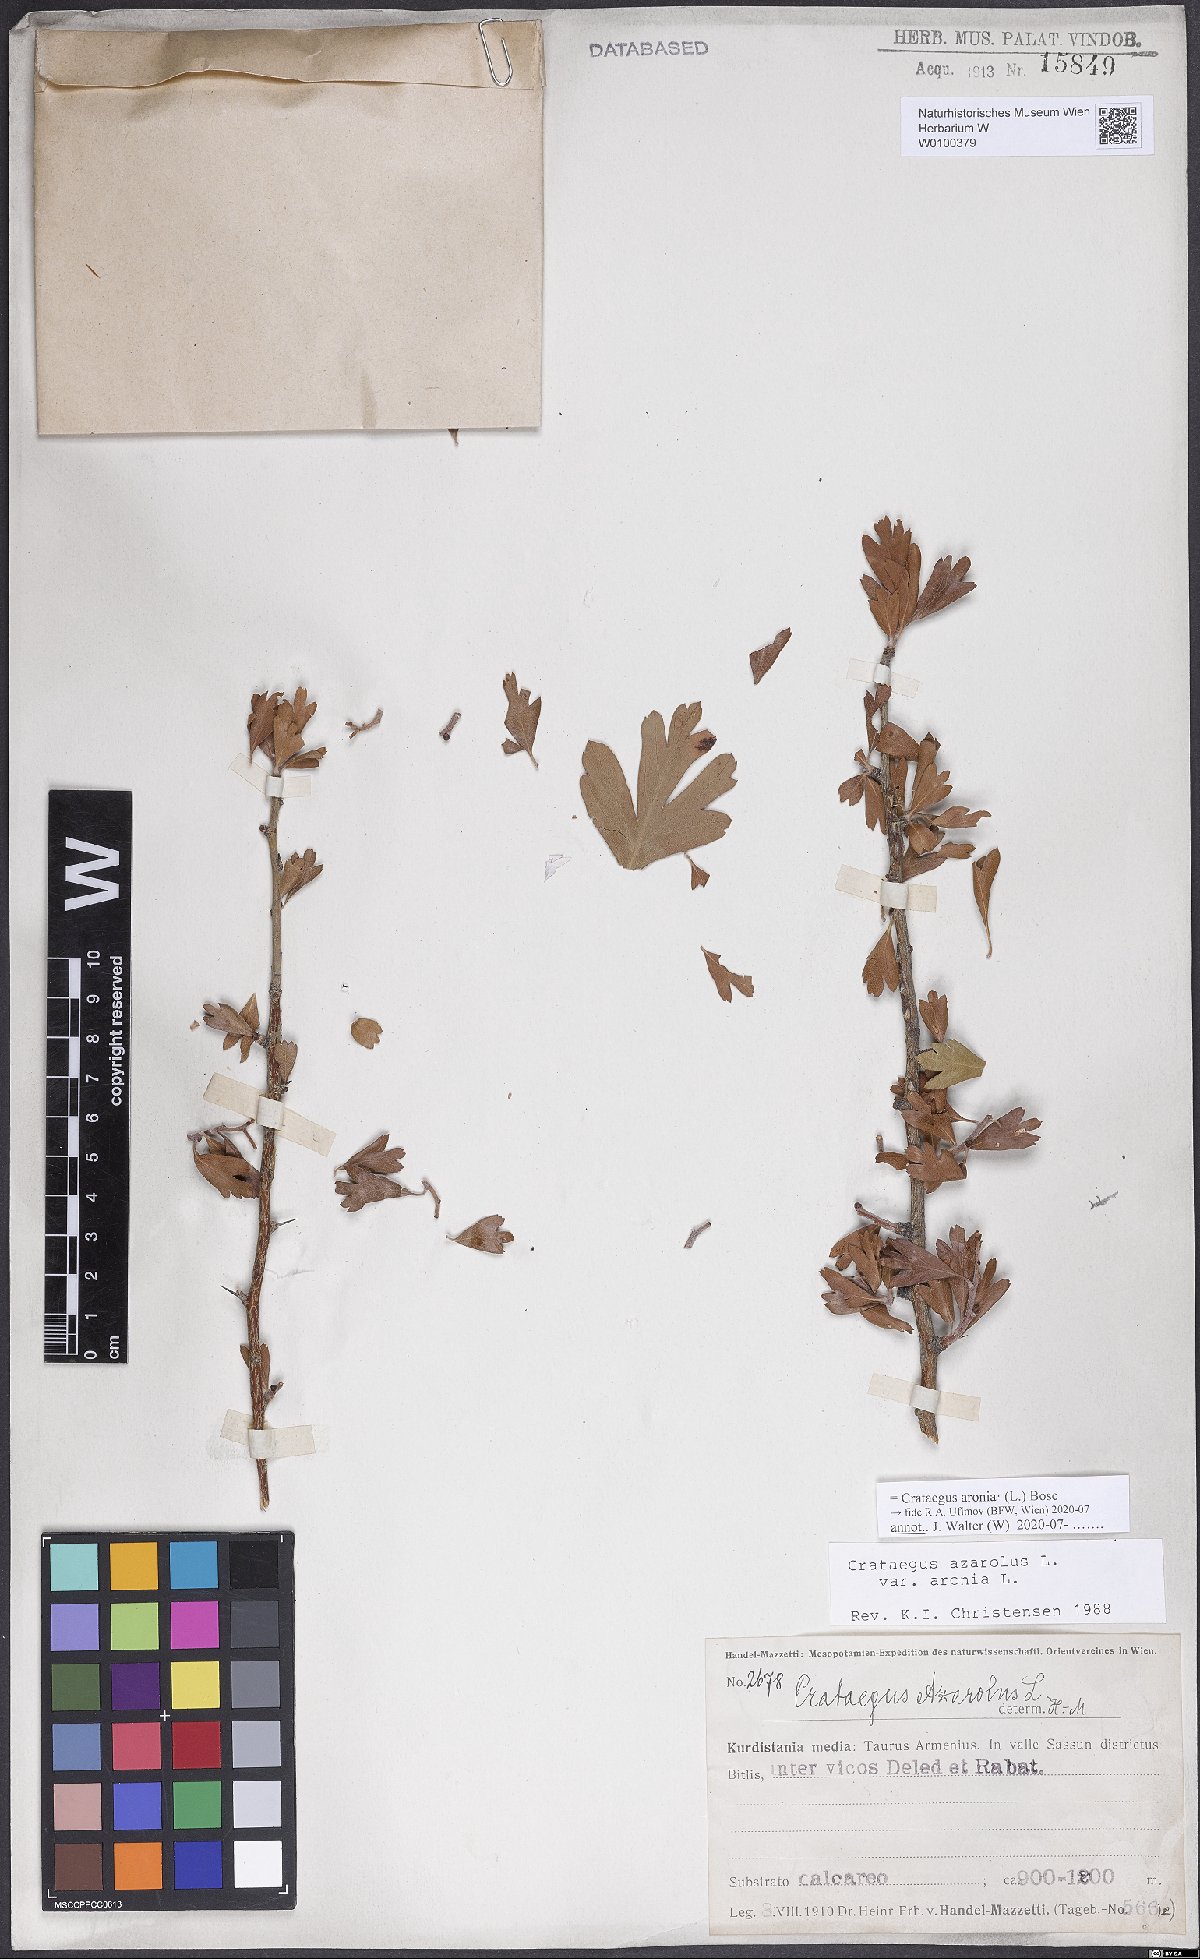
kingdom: Plantae
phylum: Tracheophyta
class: Magnoliopsida
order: Rosales
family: Rosaceae
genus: Crataegus
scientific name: Crataegus azarolus
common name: Azarole
